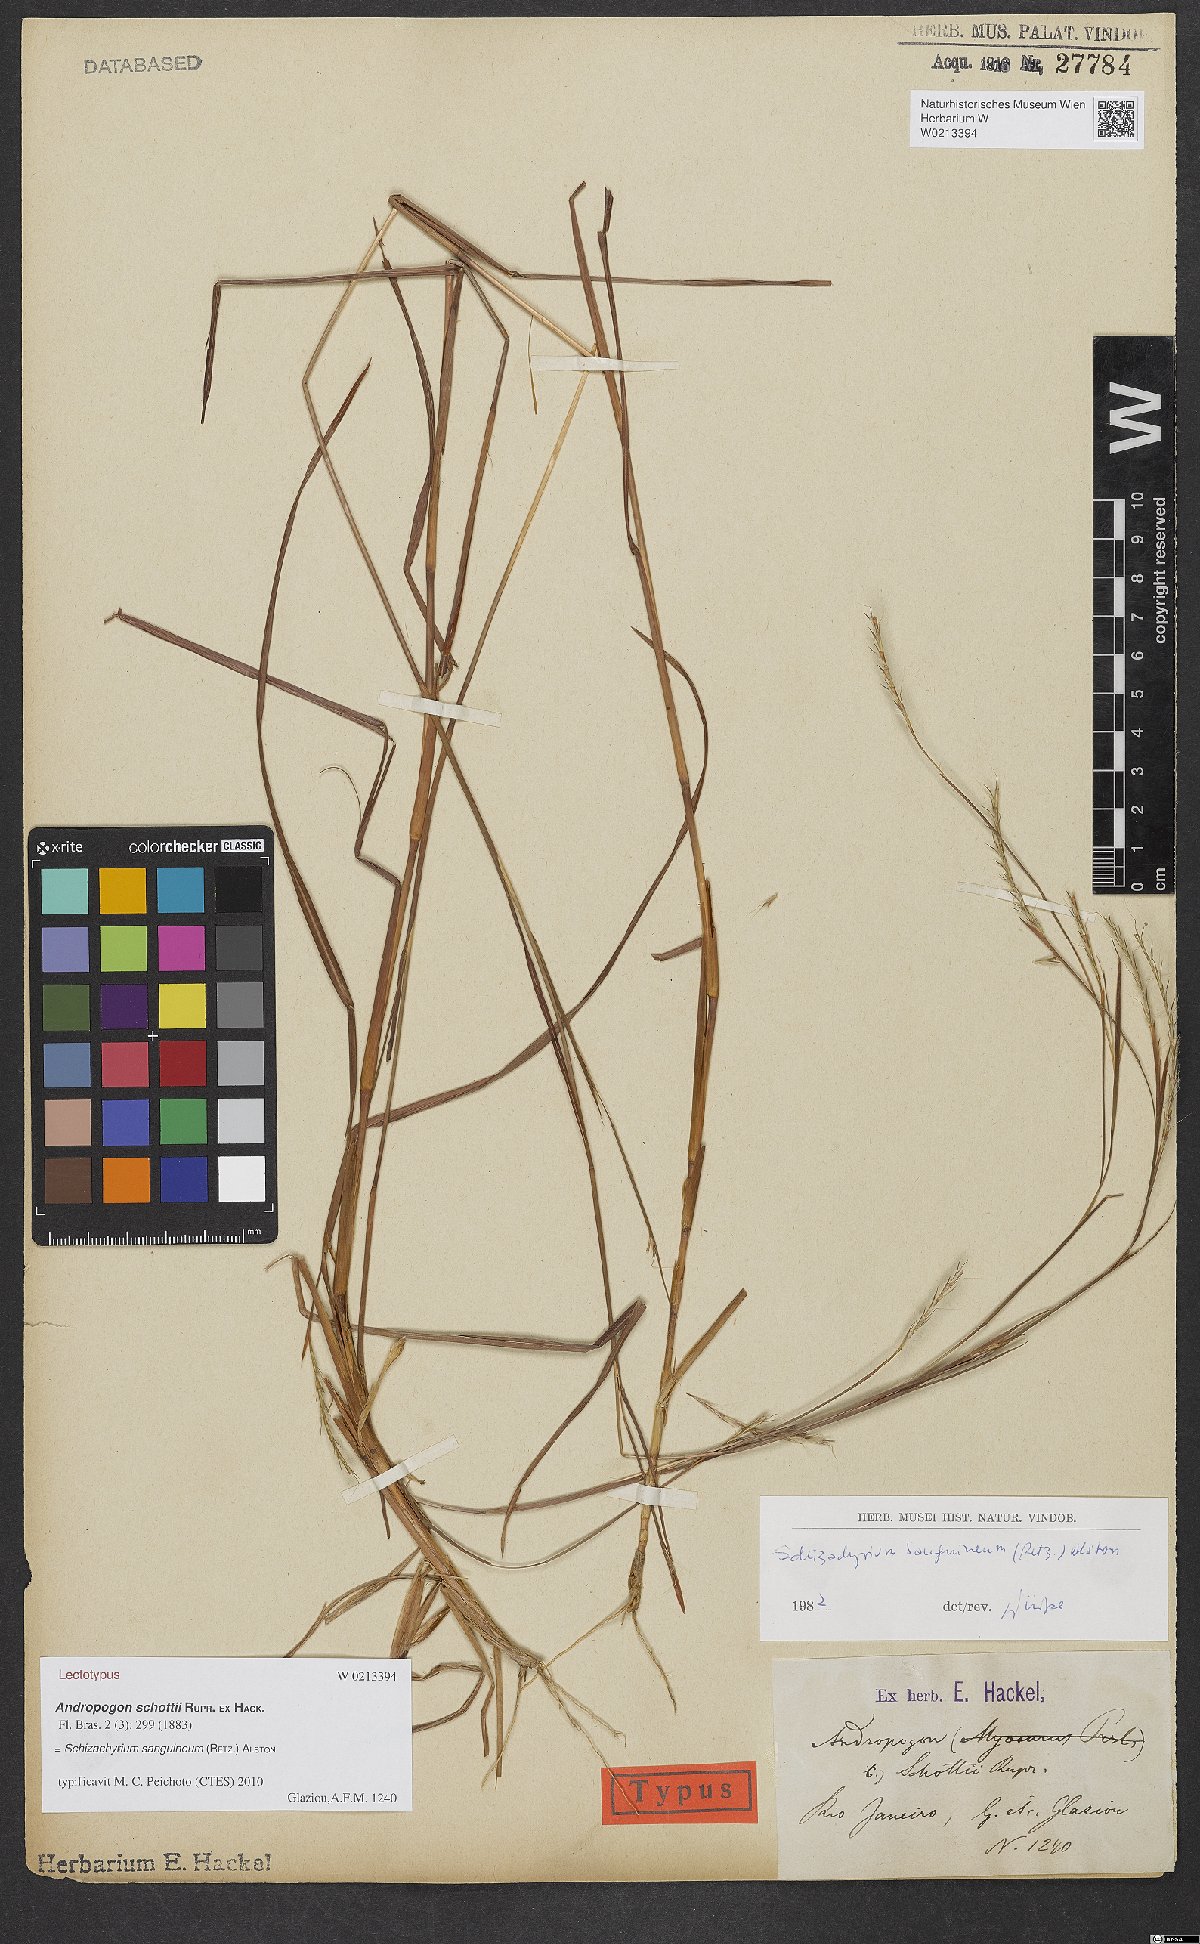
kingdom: Plantae
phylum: Tracheophyta
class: Liliopsida
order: Poales
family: Poaceae
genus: Andropogon
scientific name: Andropogon tener
